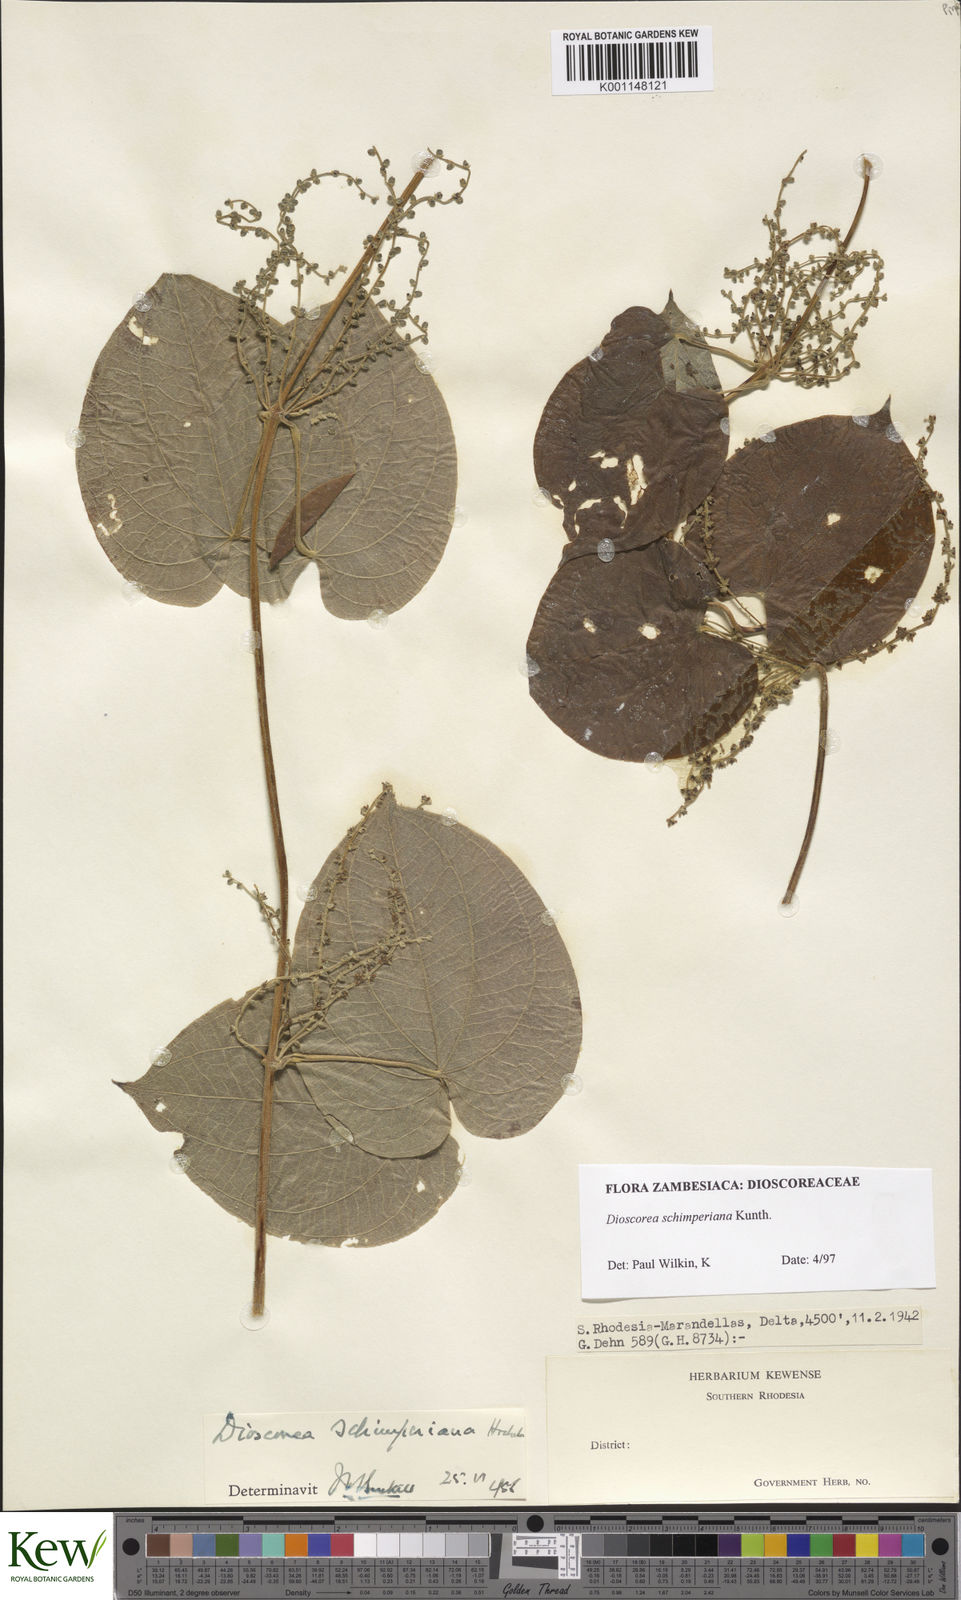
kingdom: Plantae
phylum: Tracheophyta
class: Liliopsida
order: Dioscoreales
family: Dioscoreaceae
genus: Dioscorea
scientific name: Dioscorea schimperiana
